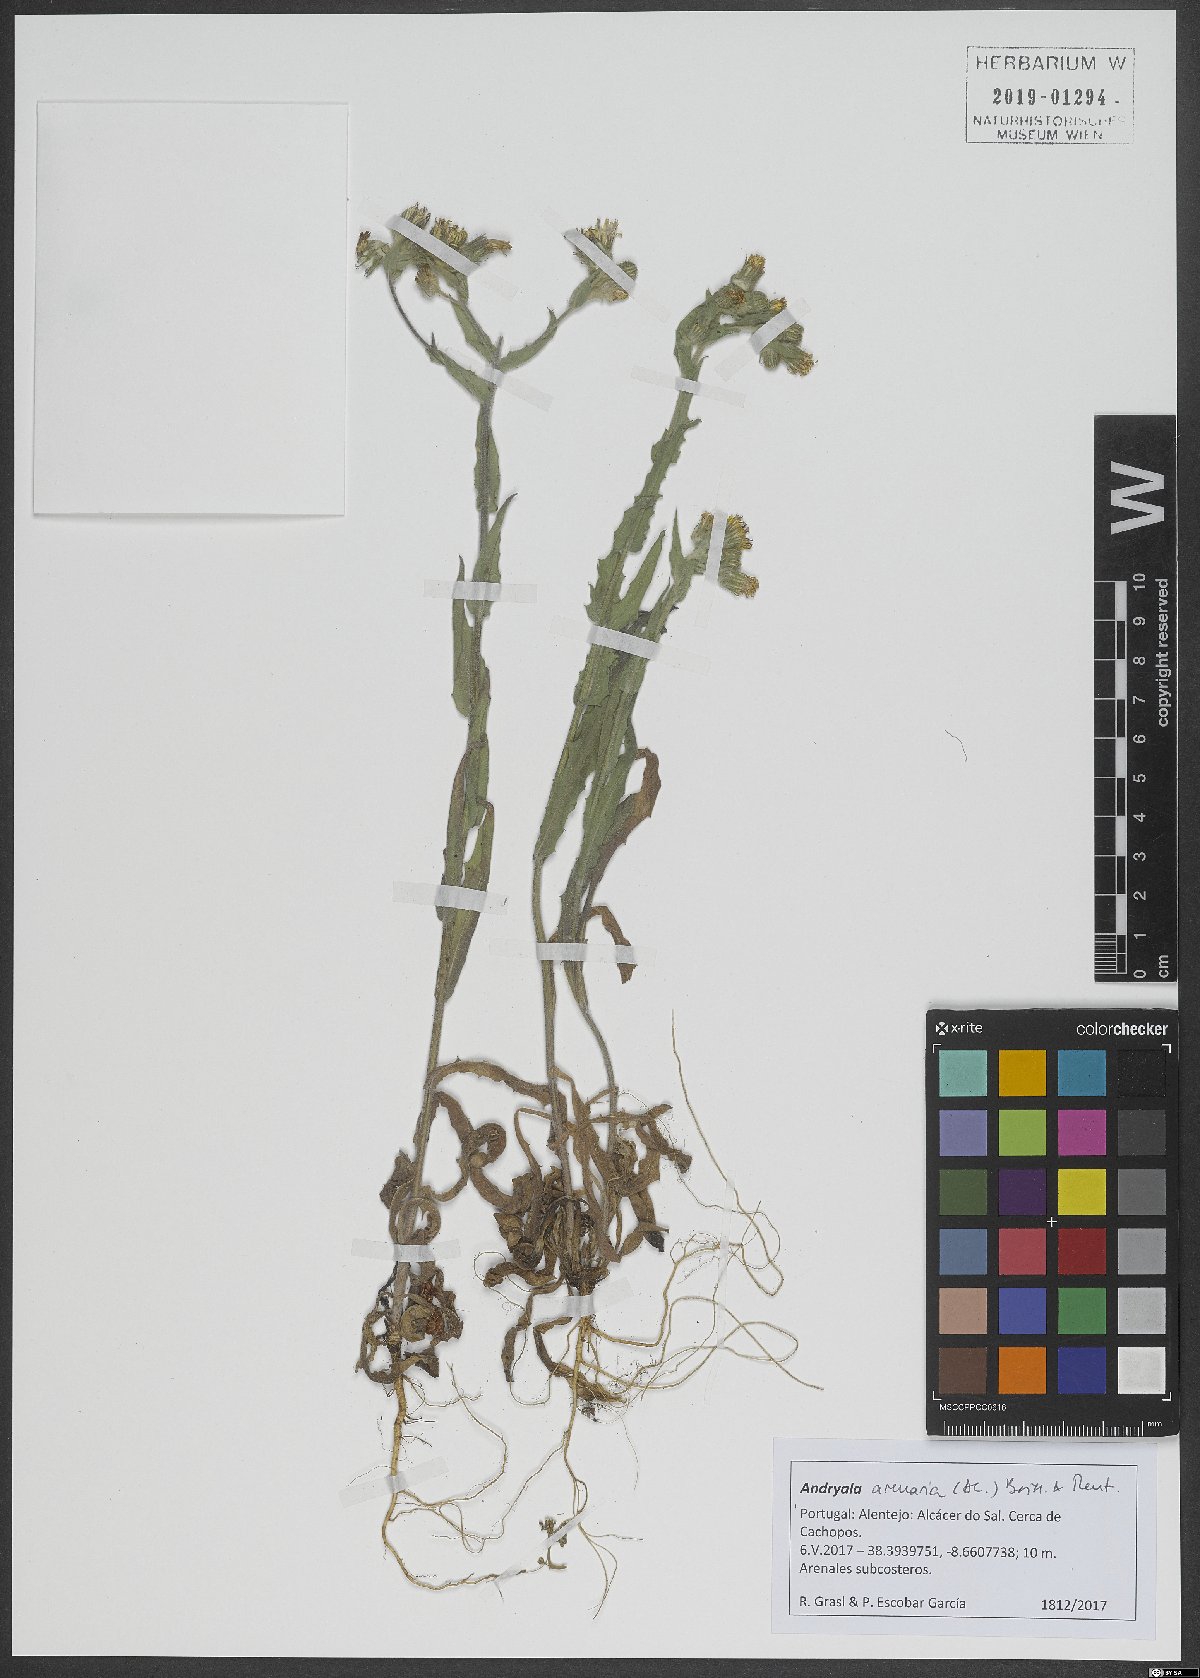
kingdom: Plantae
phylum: Tracheophyta
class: Magnoliopsida
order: Asterales
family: Asteraceae
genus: Andryala
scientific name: Andryala arenaria
